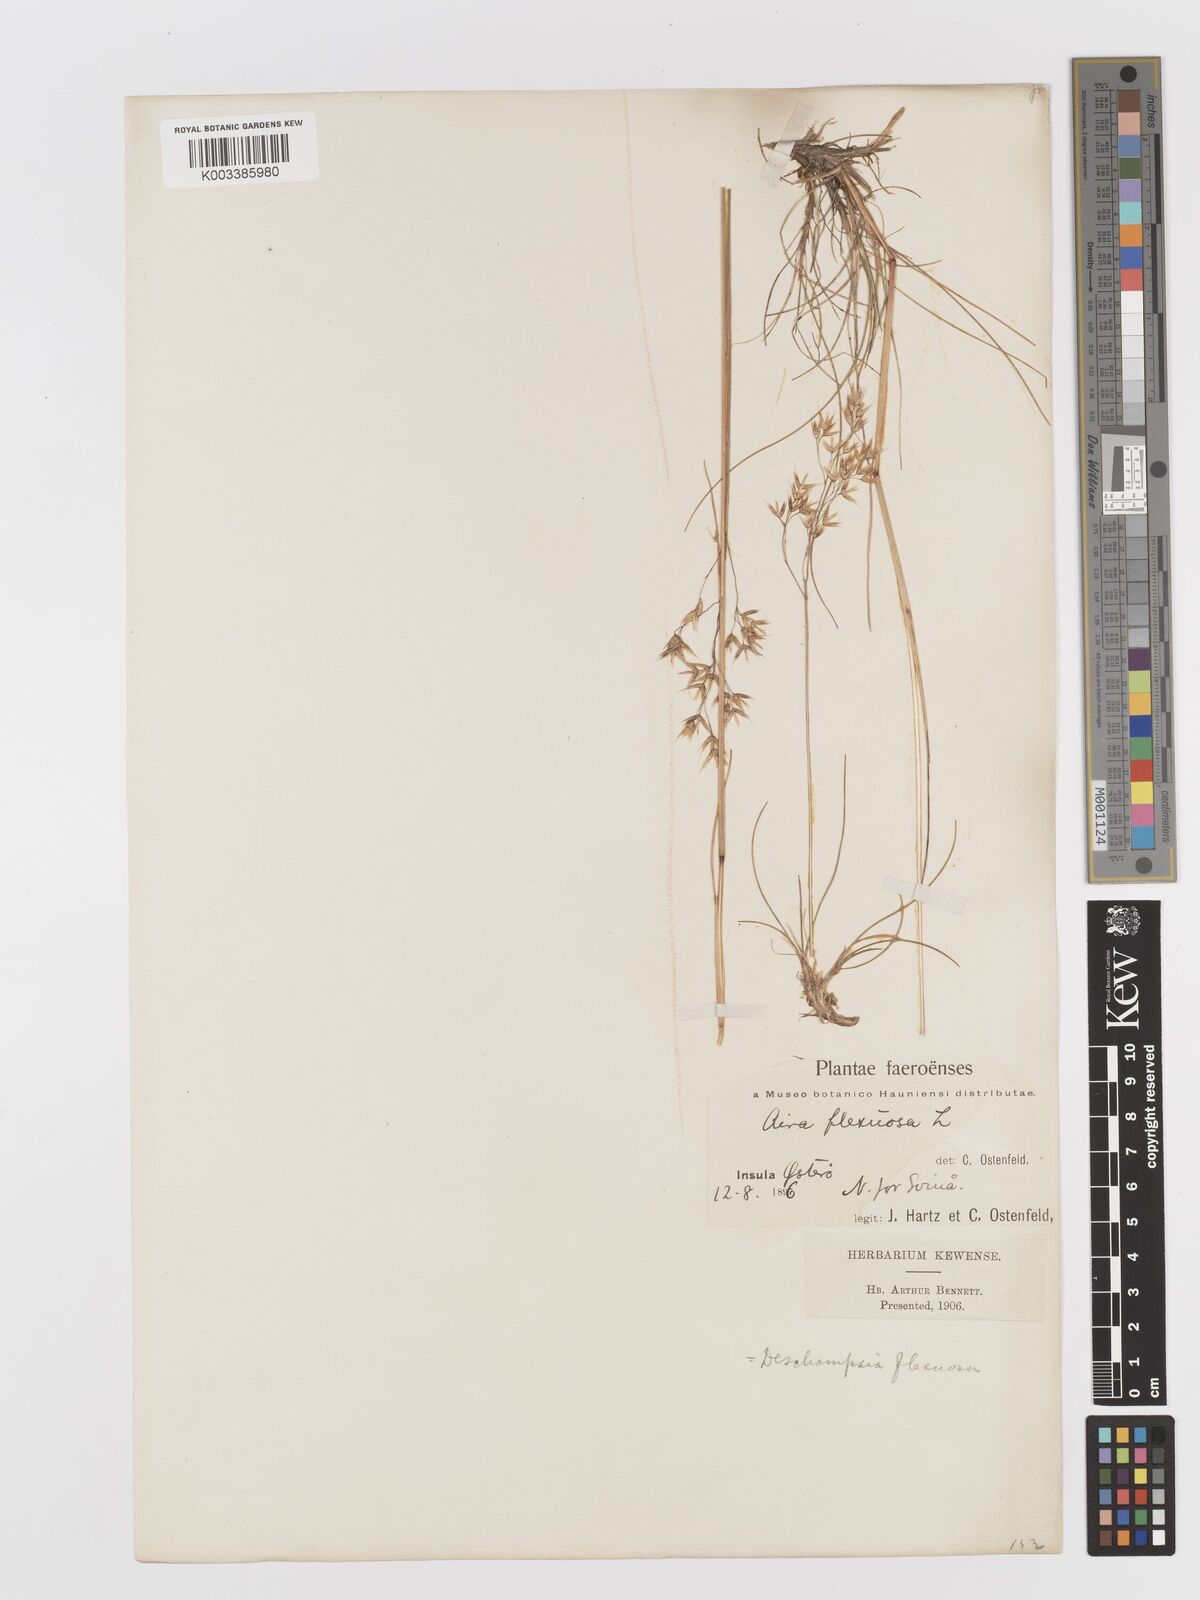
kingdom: Plantae
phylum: Tracheophyta
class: Liliopsida
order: Poales
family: Poaceae
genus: Avenella
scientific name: Avenella flexuosa
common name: Wavy hairgrass
